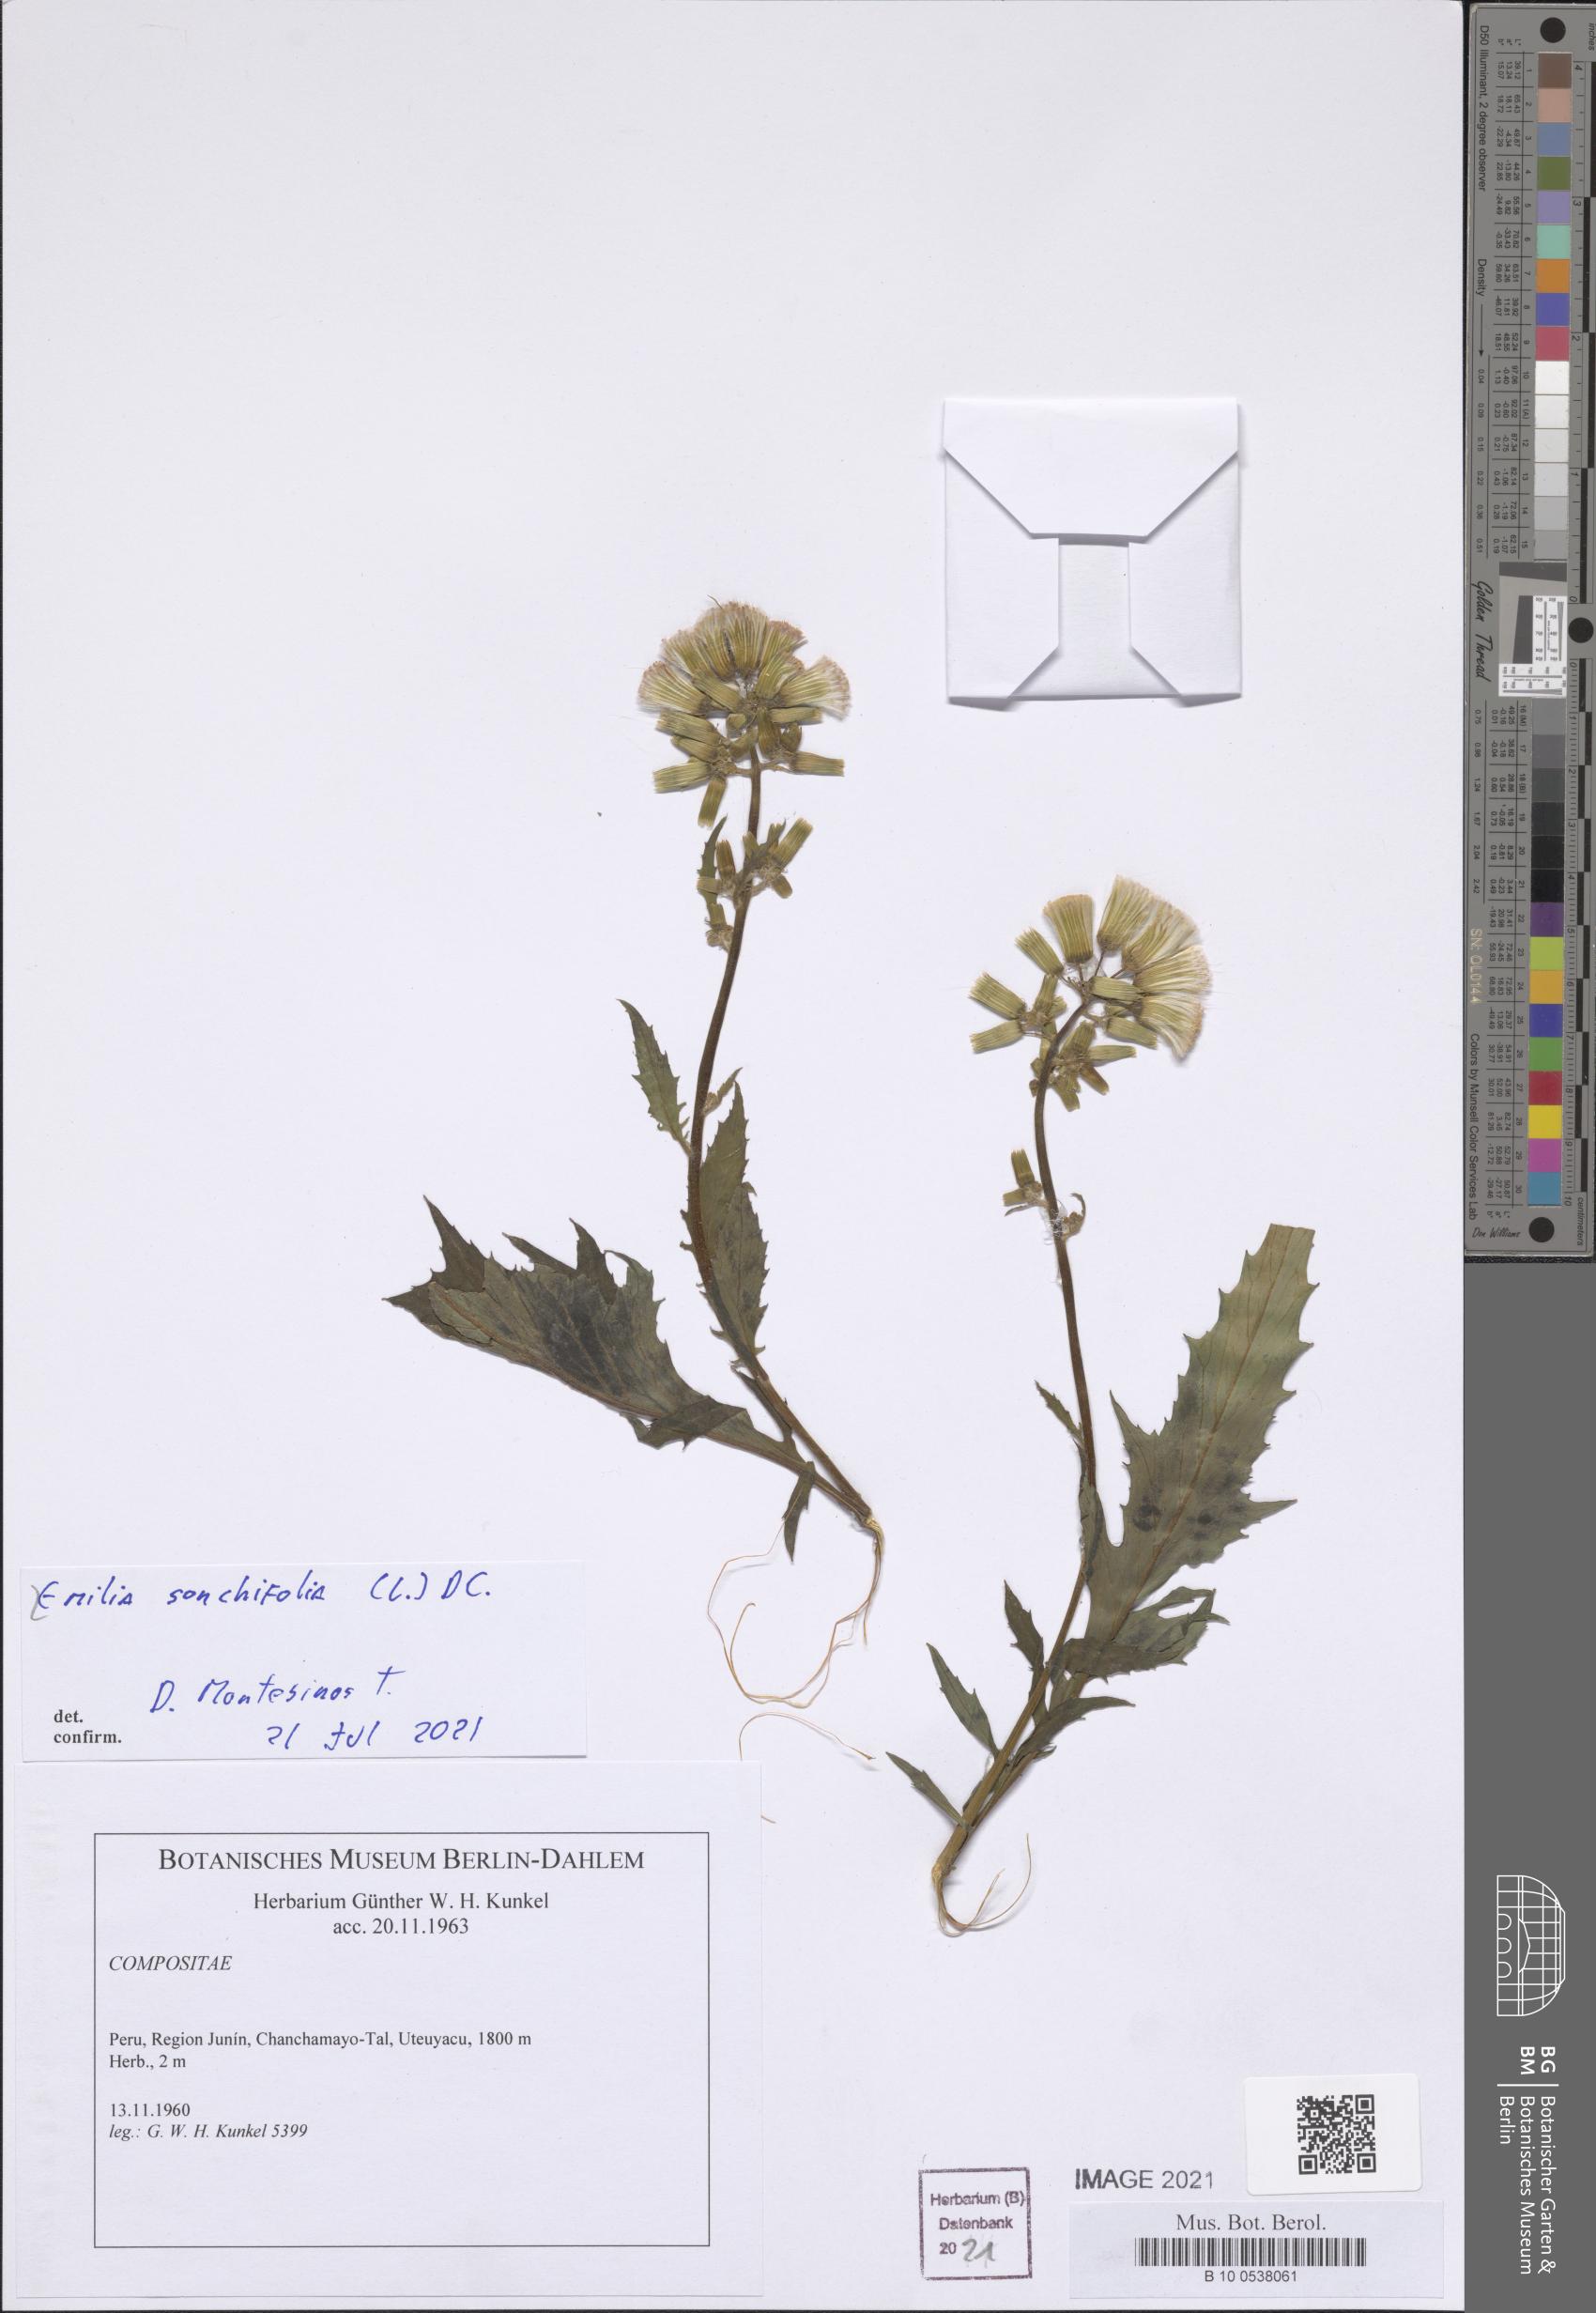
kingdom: Plantae
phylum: Tracheophyta
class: Magnoliopsida
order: Asterales
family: Asteraceae
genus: Emilia
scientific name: Emilia sonchifolia
